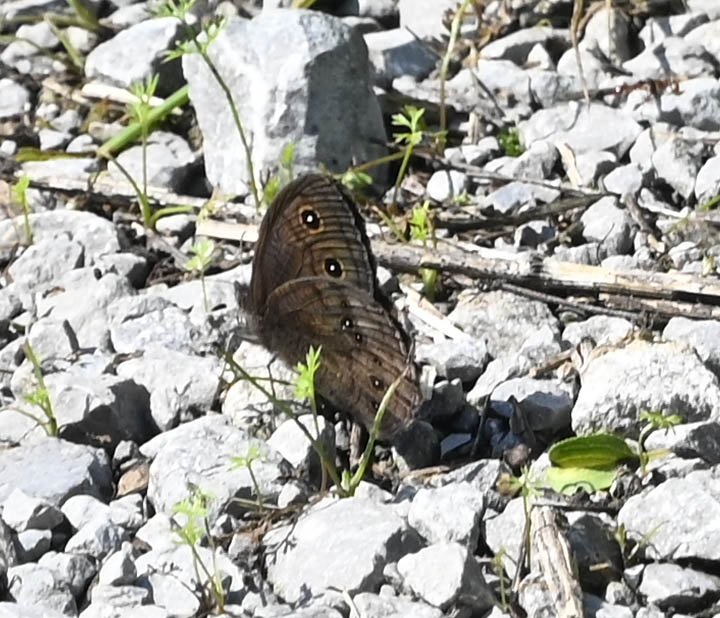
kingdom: Animalia
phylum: Arthropoda
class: Insecta
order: Lepidoptera
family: Nymphalidae
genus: Cercyonis
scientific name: Cercyonis pegala
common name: Common Wood-Nymph
